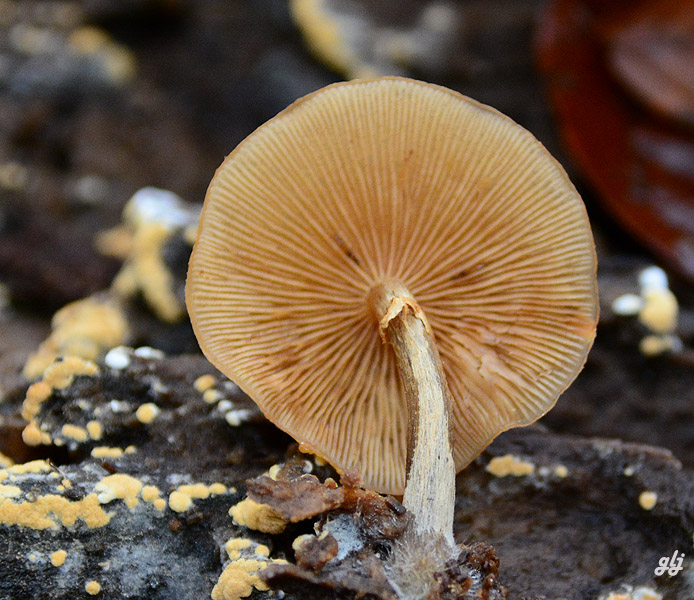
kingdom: Fungi
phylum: Basidiomycota
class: Agaricomycetes
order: Agaricales
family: Hymenogastraceae
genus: Galerina
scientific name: Galerina marginata
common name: randbæltet hjelmhat
